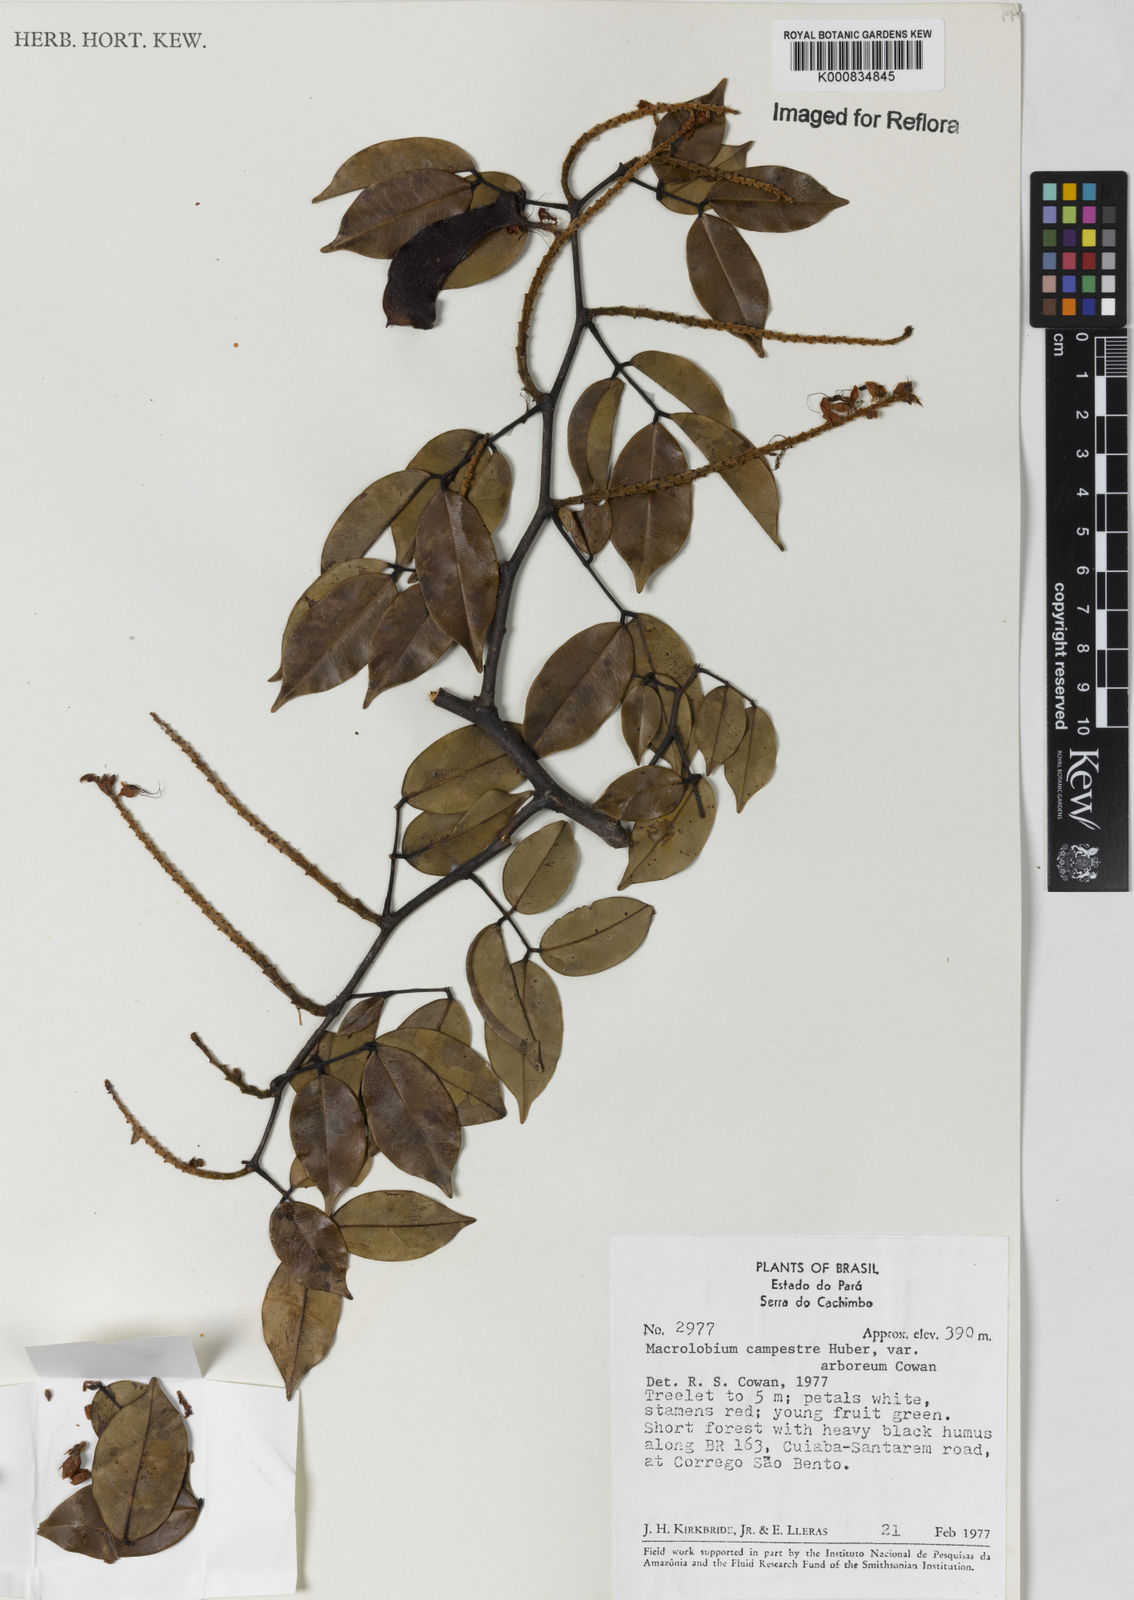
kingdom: Plantae
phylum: Tracheophyta
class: Magnoliopsida
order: Fabales
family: Fabaceae
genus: Macrolobium
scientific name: Macrolobium campestre
